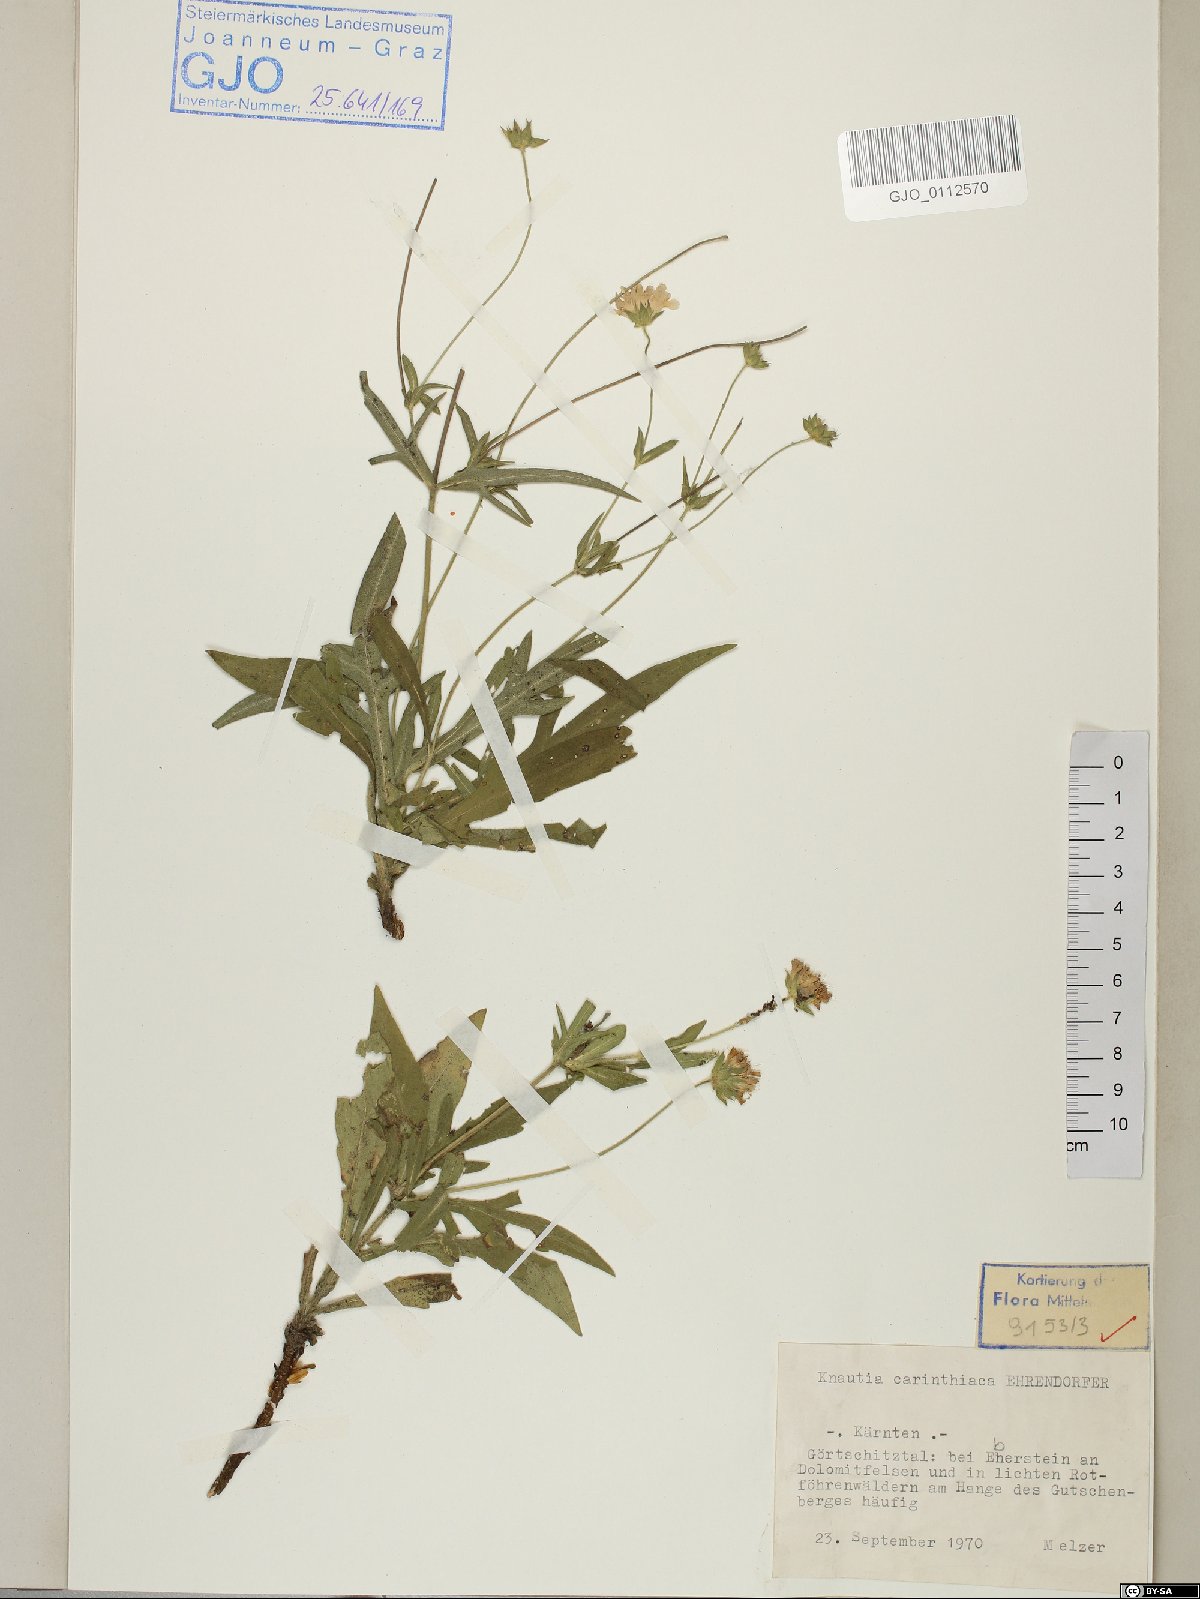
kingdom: Plantae
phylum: Tracheophyta
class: Magnoliopsida
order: Dipsacales
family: Caprifoliaceae
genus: Knautia
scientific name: Knautia carinthiaca
